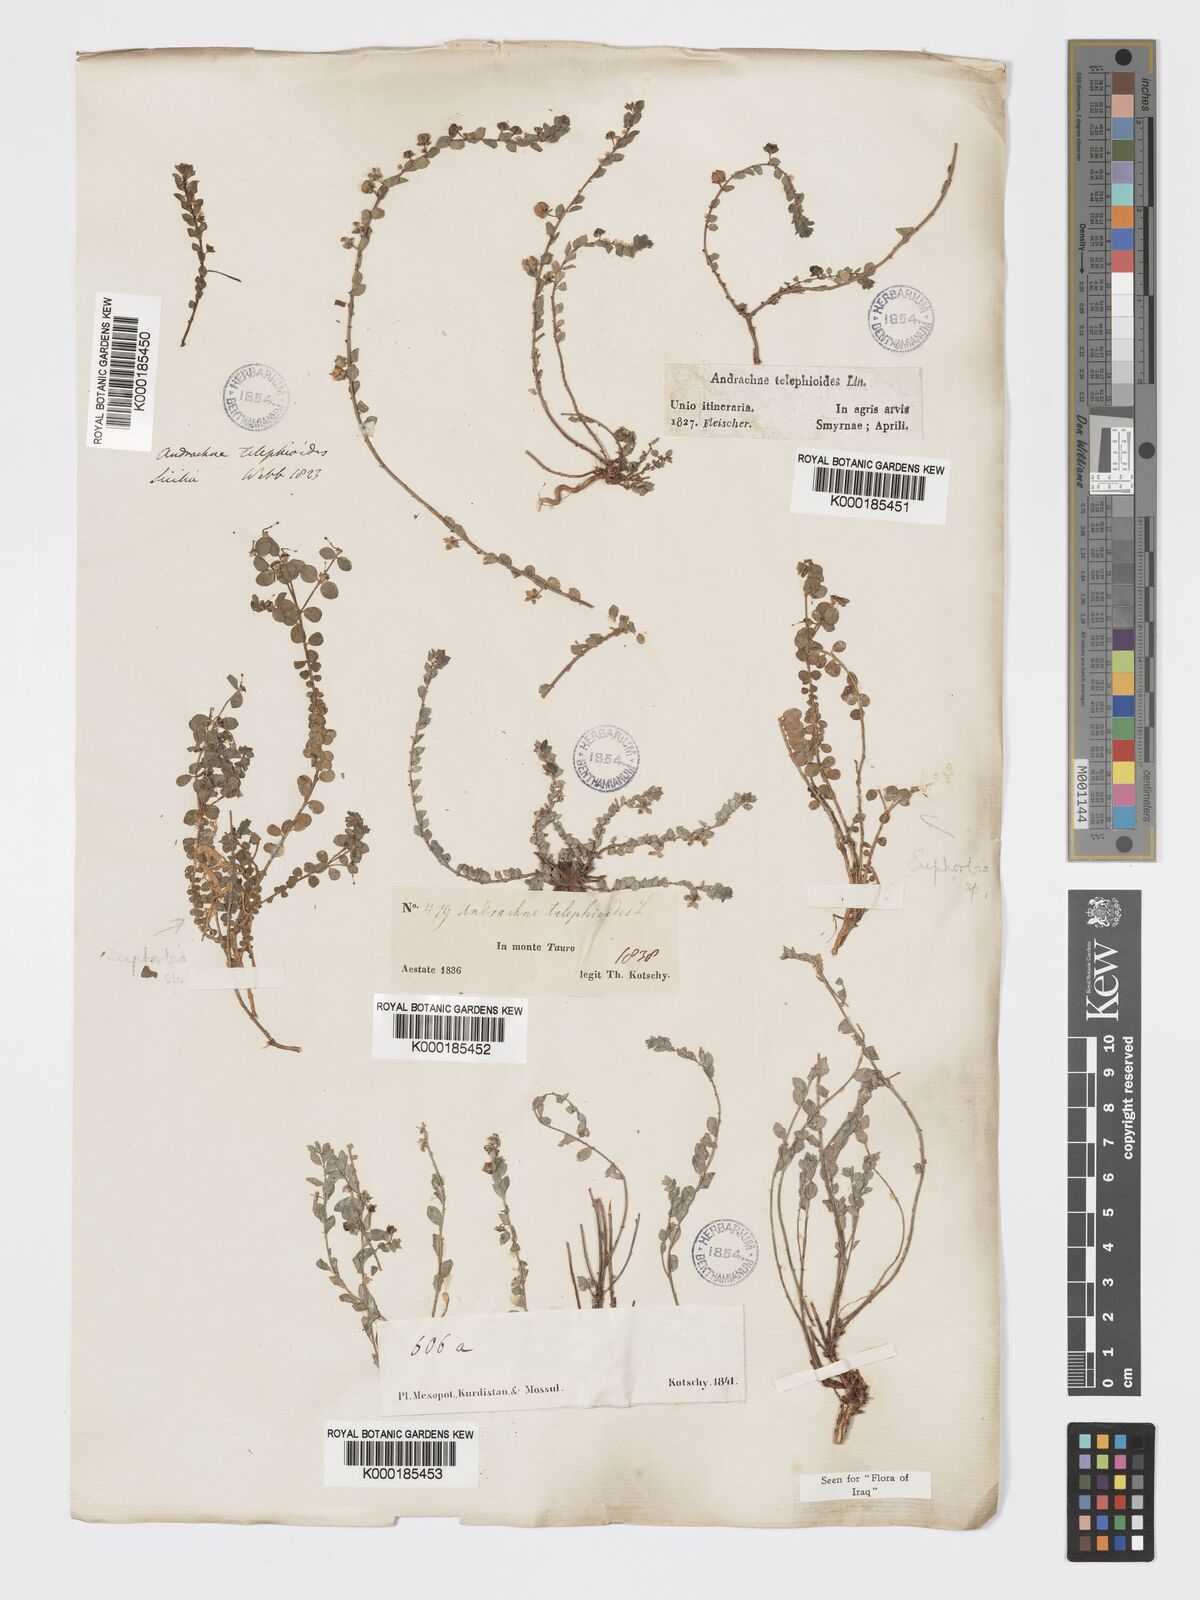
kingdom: Plantae
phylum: Tracheophyta
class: Magnoliopsida
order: Malpighiales
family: Phyllanthaceae
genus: Andrachne
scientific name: Andrachne telephioides
